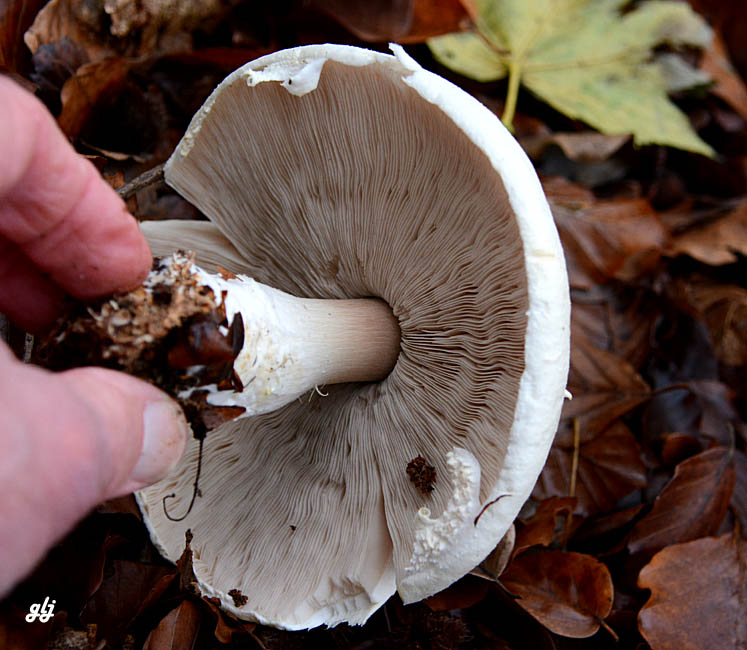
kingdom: Fungi
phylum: Basidiomycota
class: Agaricomycetes
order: Agaricales
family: Agaricaceae
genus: Agaricus
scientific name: Agaricus
